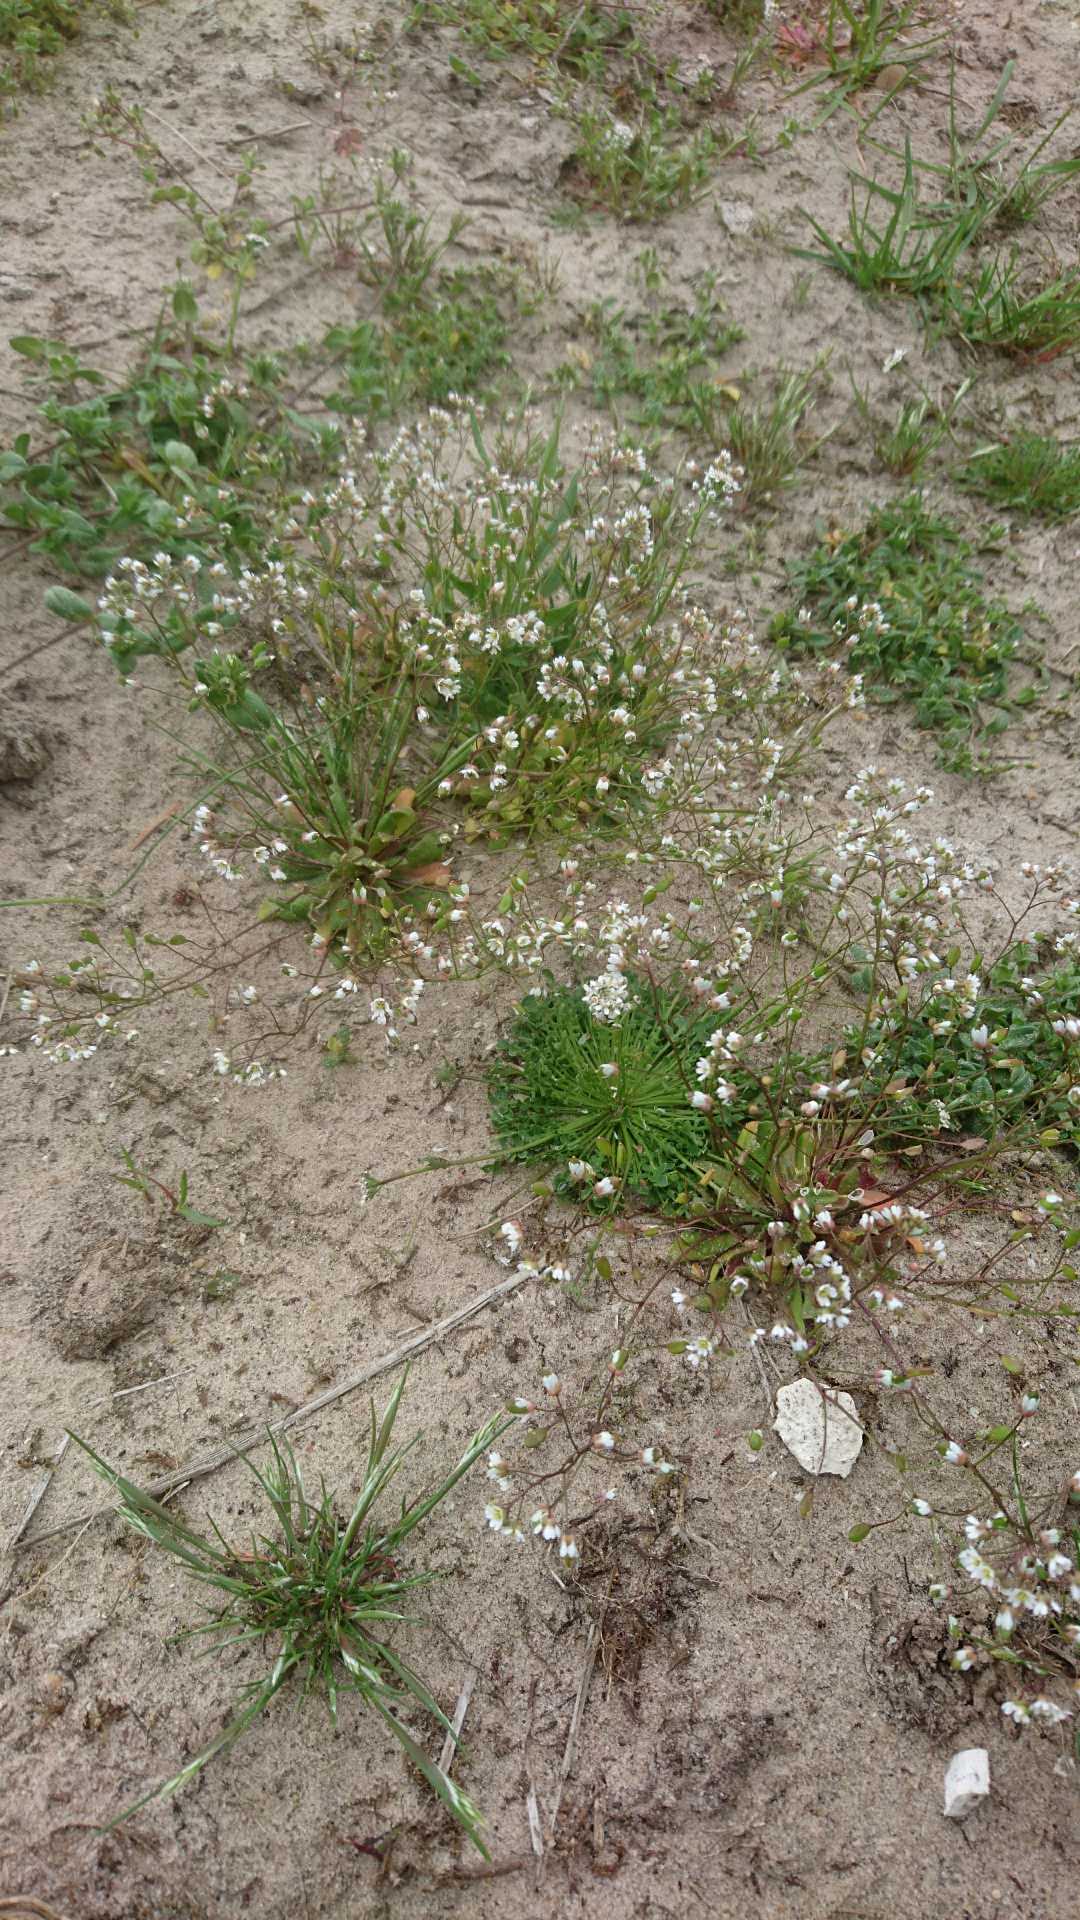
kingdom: Plantae
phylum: Tracheophyta
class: Magnoliopsida
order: Brassicales
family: Brassicaceae
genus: Draba
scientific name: Draba verna
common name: Vår-gæslingeblomst
